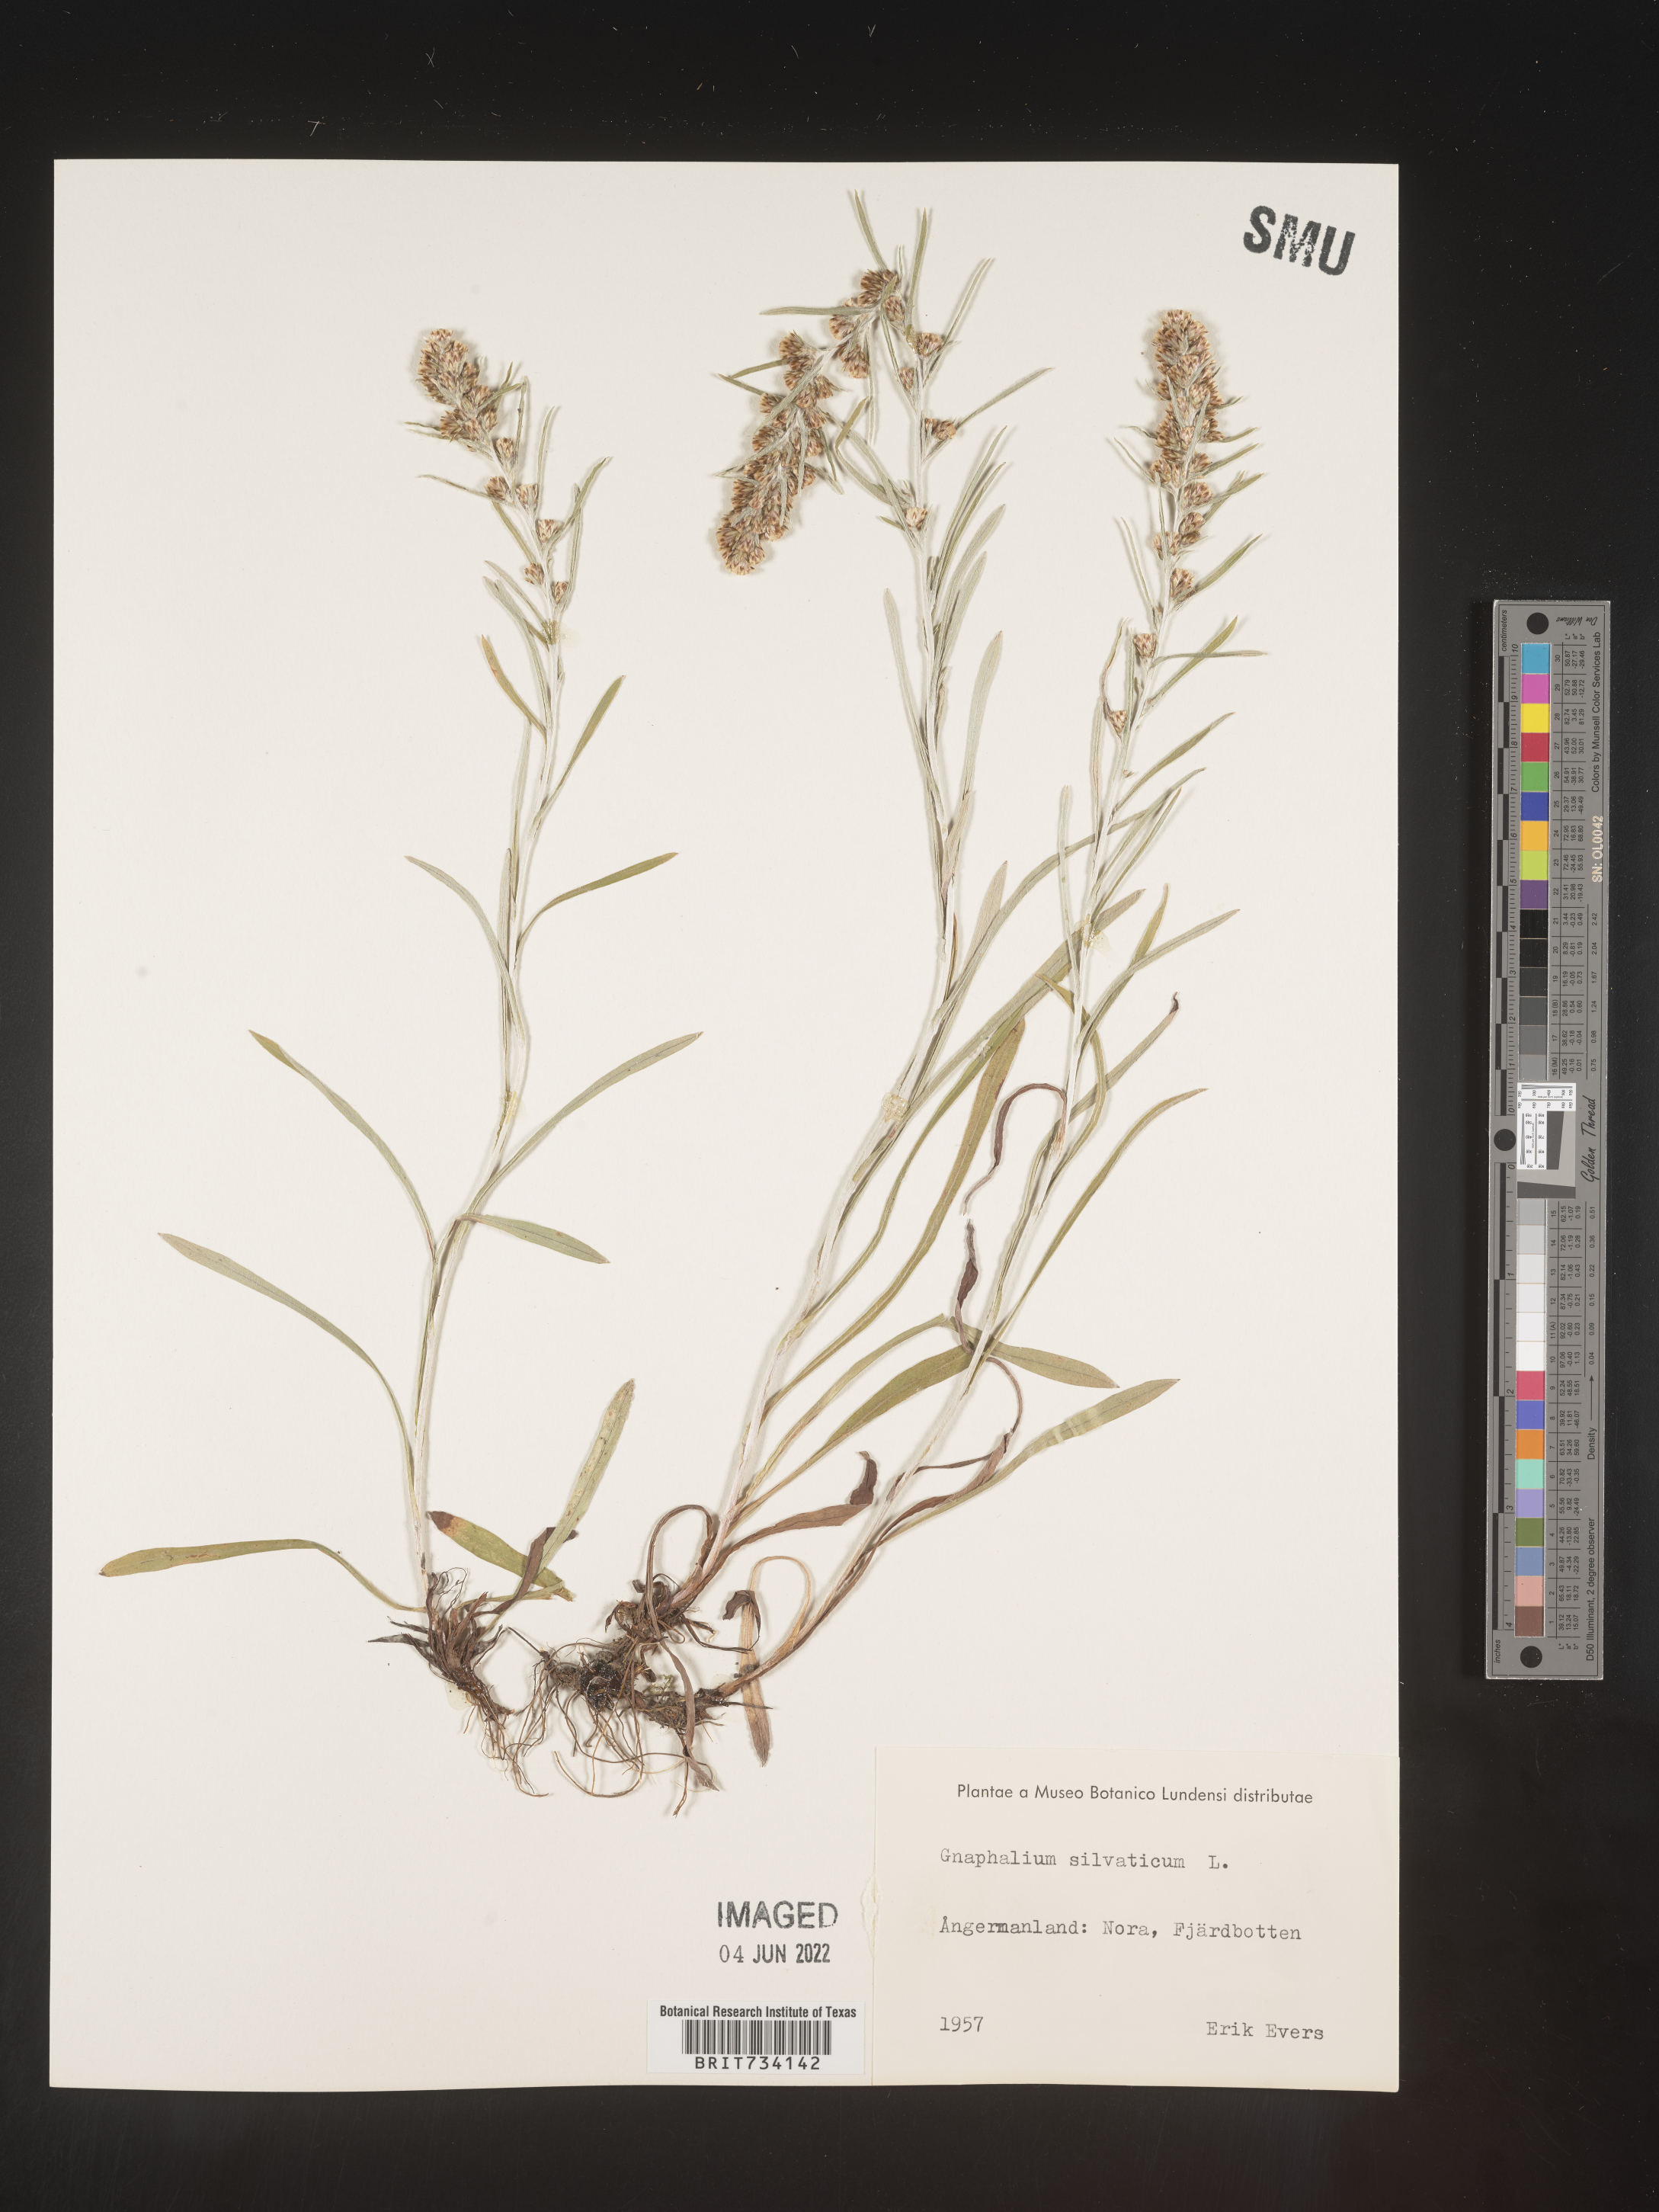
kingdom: Plantae
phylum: Tracheophyta
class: Magnoliopsida
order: Asterales
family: Asteraceae
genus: Omalotheca
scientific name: Omalotheca sylvatica
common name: Heath cudweed
